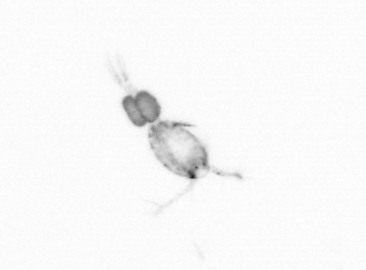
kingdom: Animalia
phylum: Arthropoda
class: Copepoda
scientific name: Copepoda
